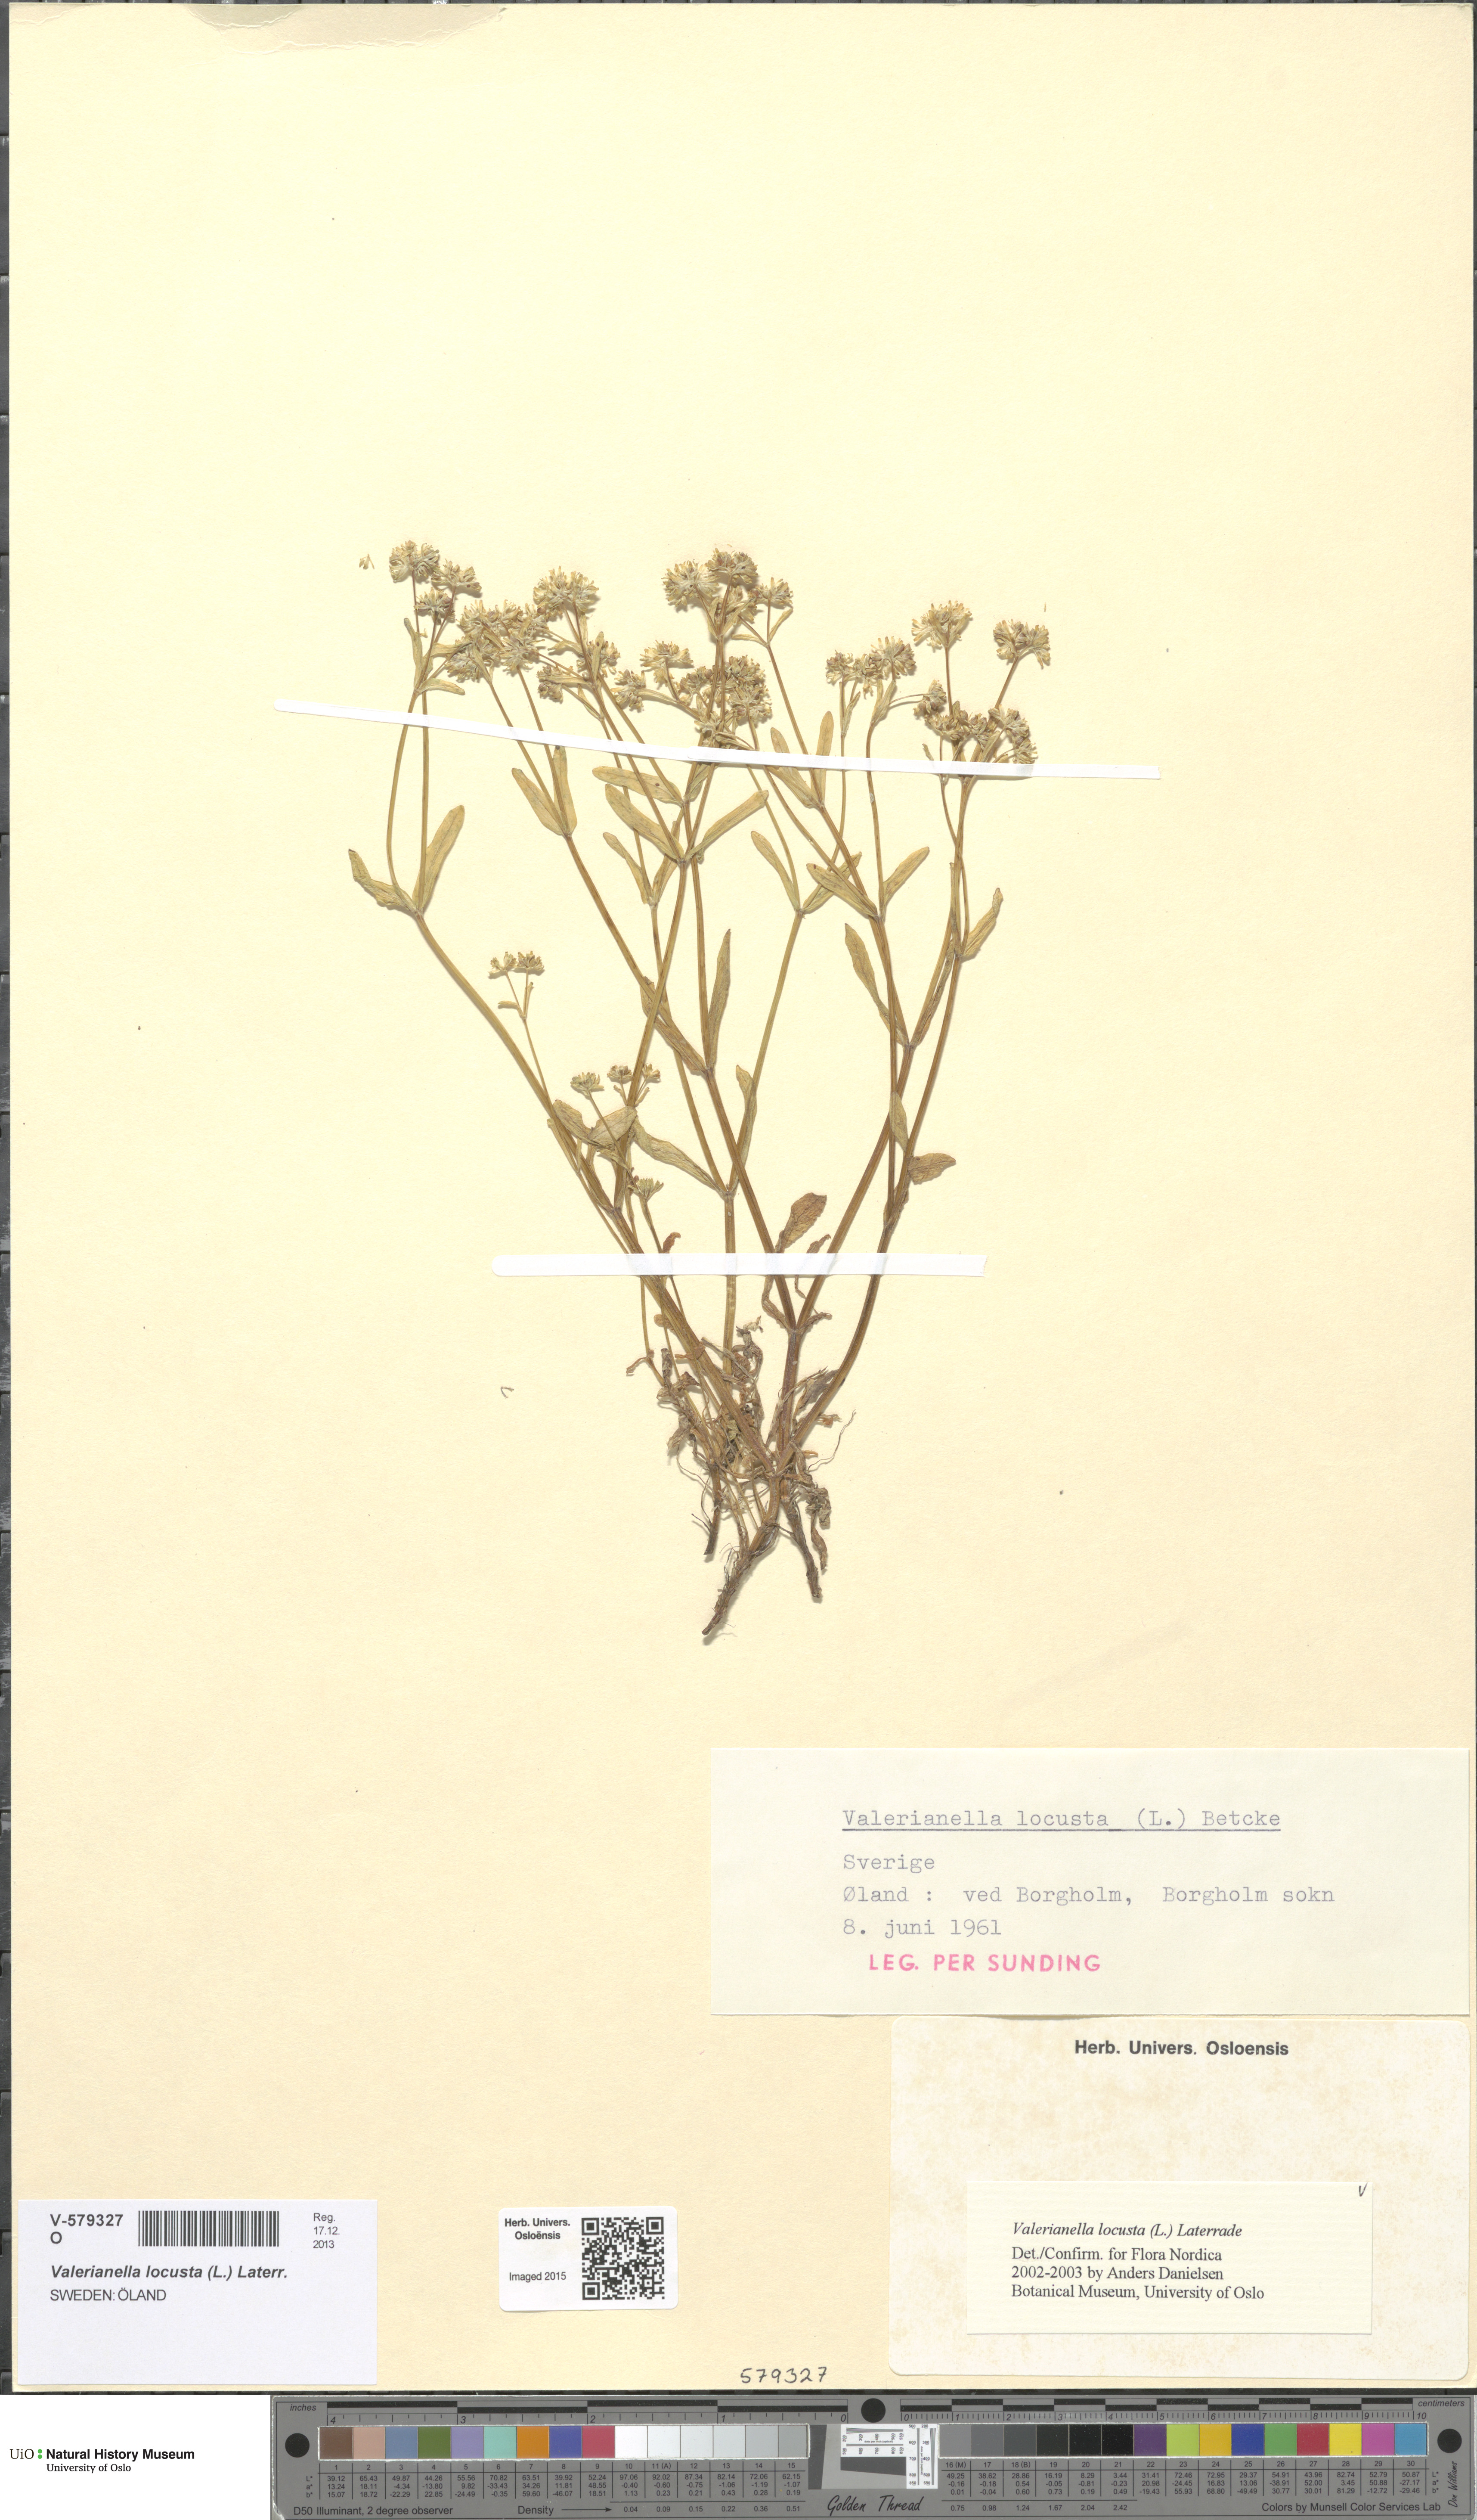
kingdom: Plantae
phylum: Tracheophyta
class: Magnoliopsida
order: Dipsacales
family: Caprifoliaceae
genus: Valerianella
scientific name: Valerianella locusta
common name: Common cornsalad
